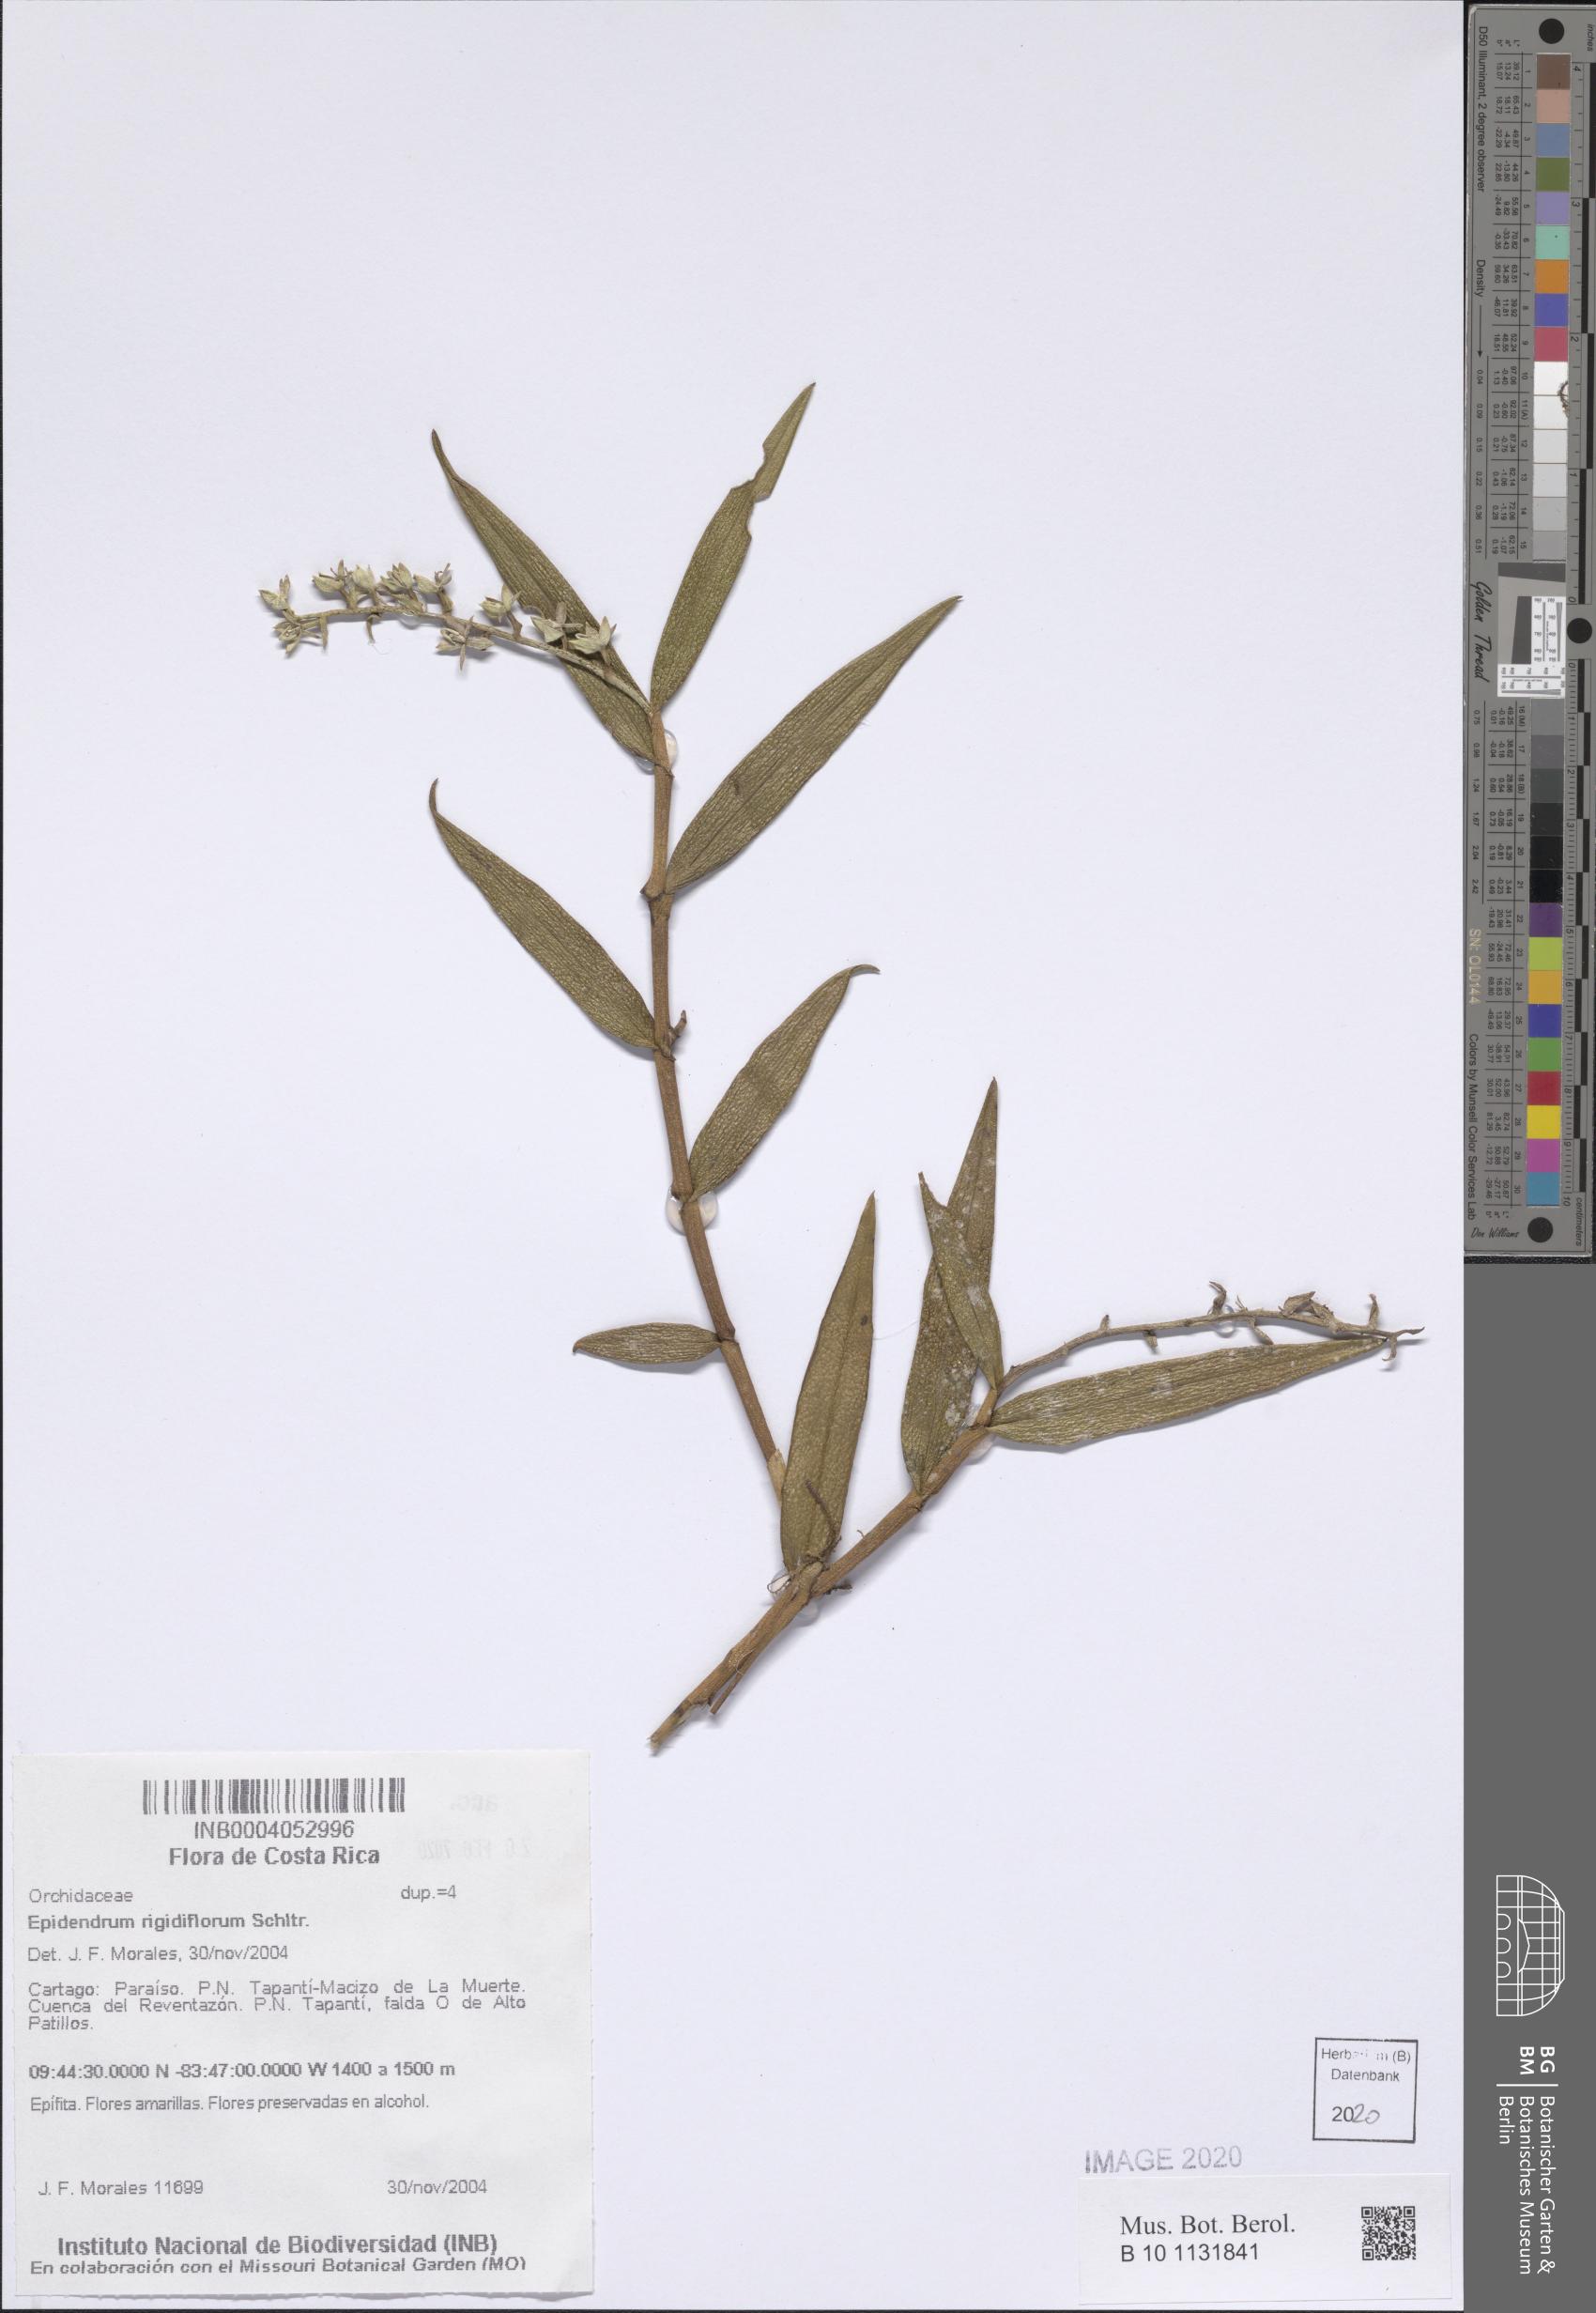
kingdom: Plantae
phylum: Tracheophyta
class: Liliopsida
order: Asparagales
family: Orchidaceae
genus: Epidendrum
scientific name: Epidendrum rigidiflorum
